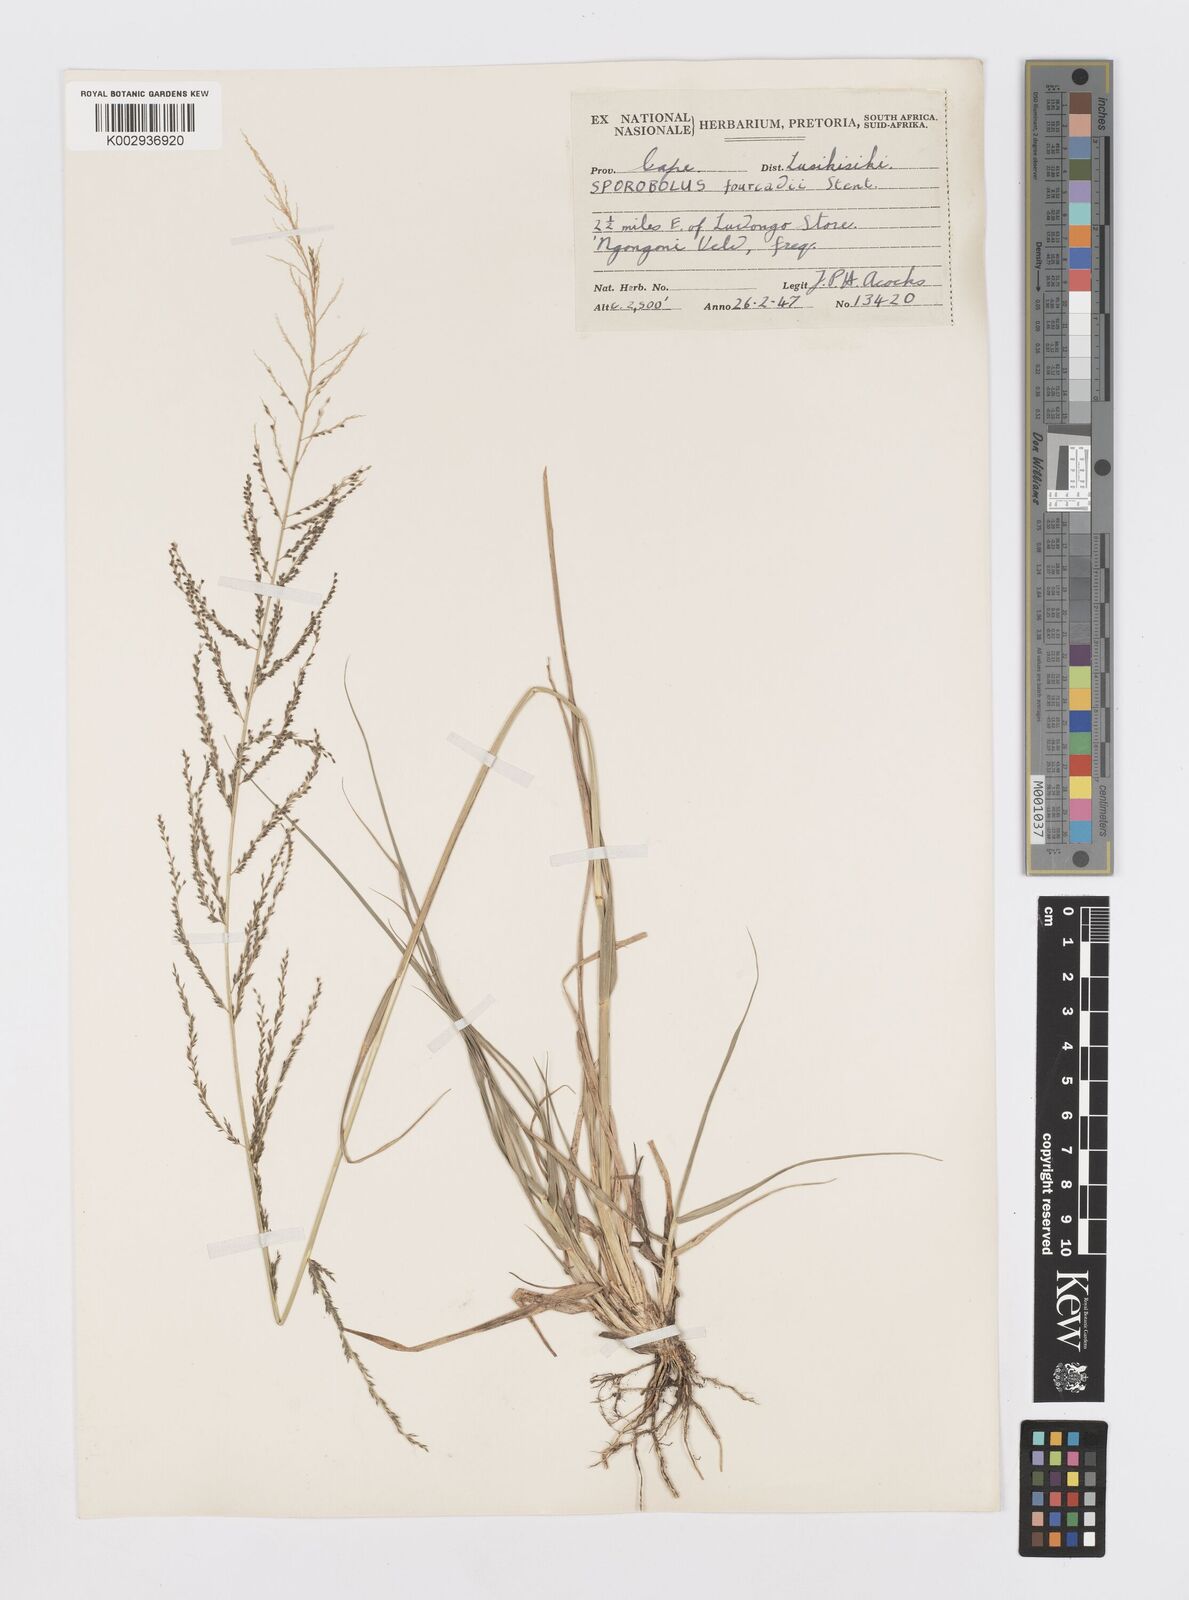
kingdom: Plantae
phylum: Tracheophyta
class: Liliopsida
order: Poales
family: Poaceae
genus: Sporobolus
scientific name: Sporobolus natalensis
